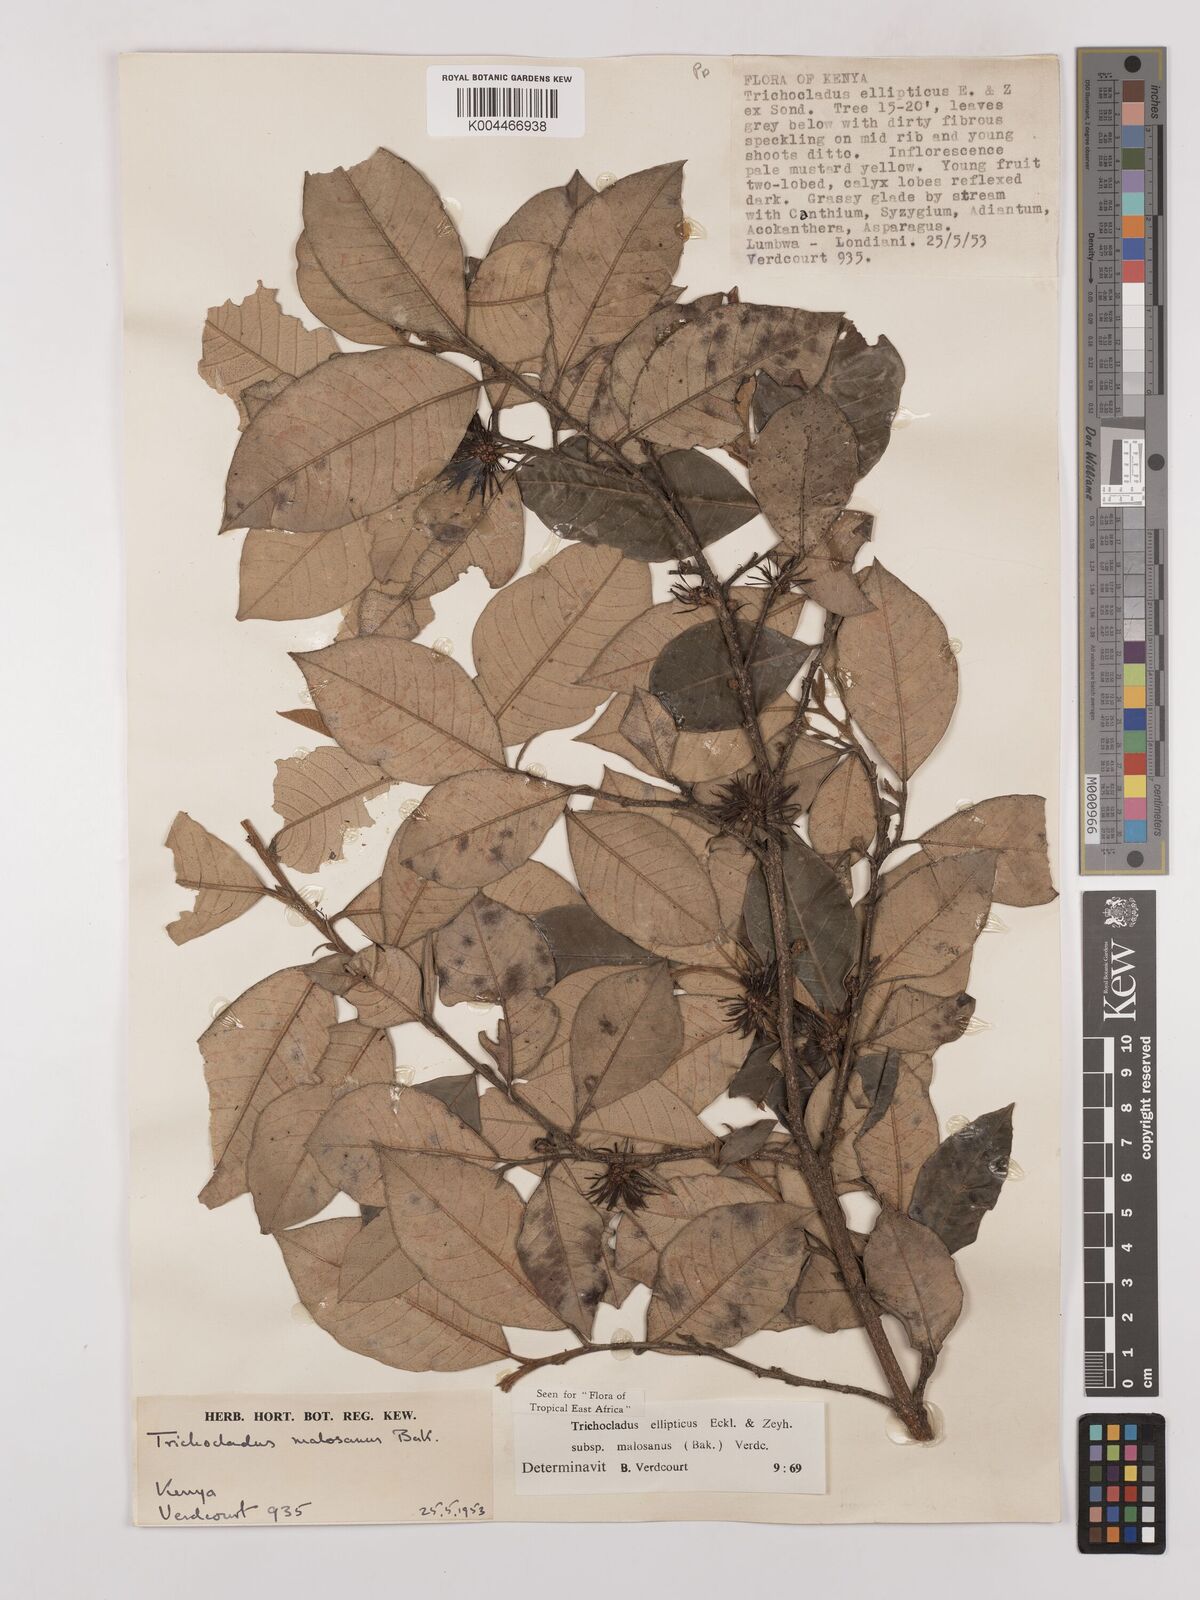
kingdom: Plantae
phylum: Tracheophyta
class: Magnoliopsida
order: Saxifragales
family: Hamamelidaceae
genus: Trichocladus
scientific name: Trichocladus ellipticus
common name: White witch-hazel
